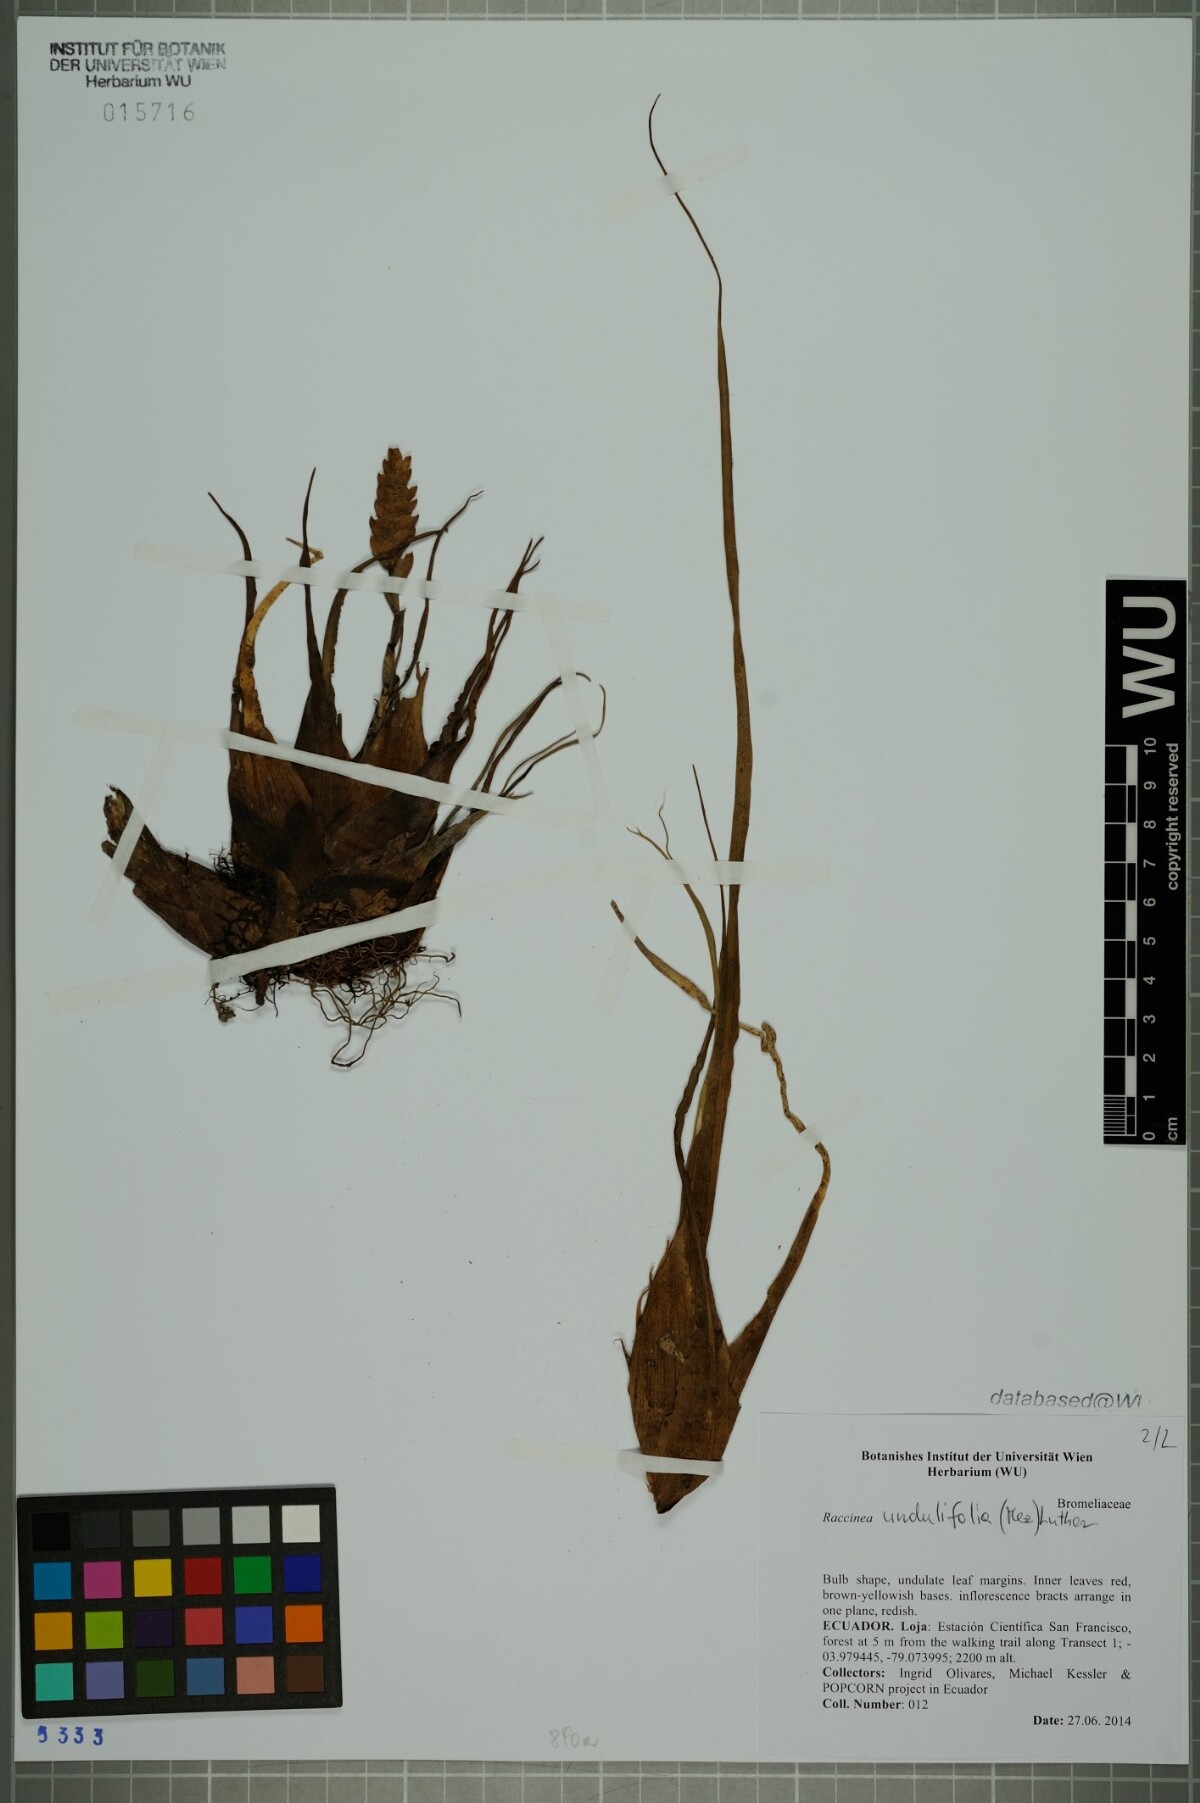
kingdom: Plantae
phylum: Tracheophyta
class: Liliopsida
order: Poales
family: Bromeliaceae
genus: Racinaea
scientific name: Racinaea undulifolia
